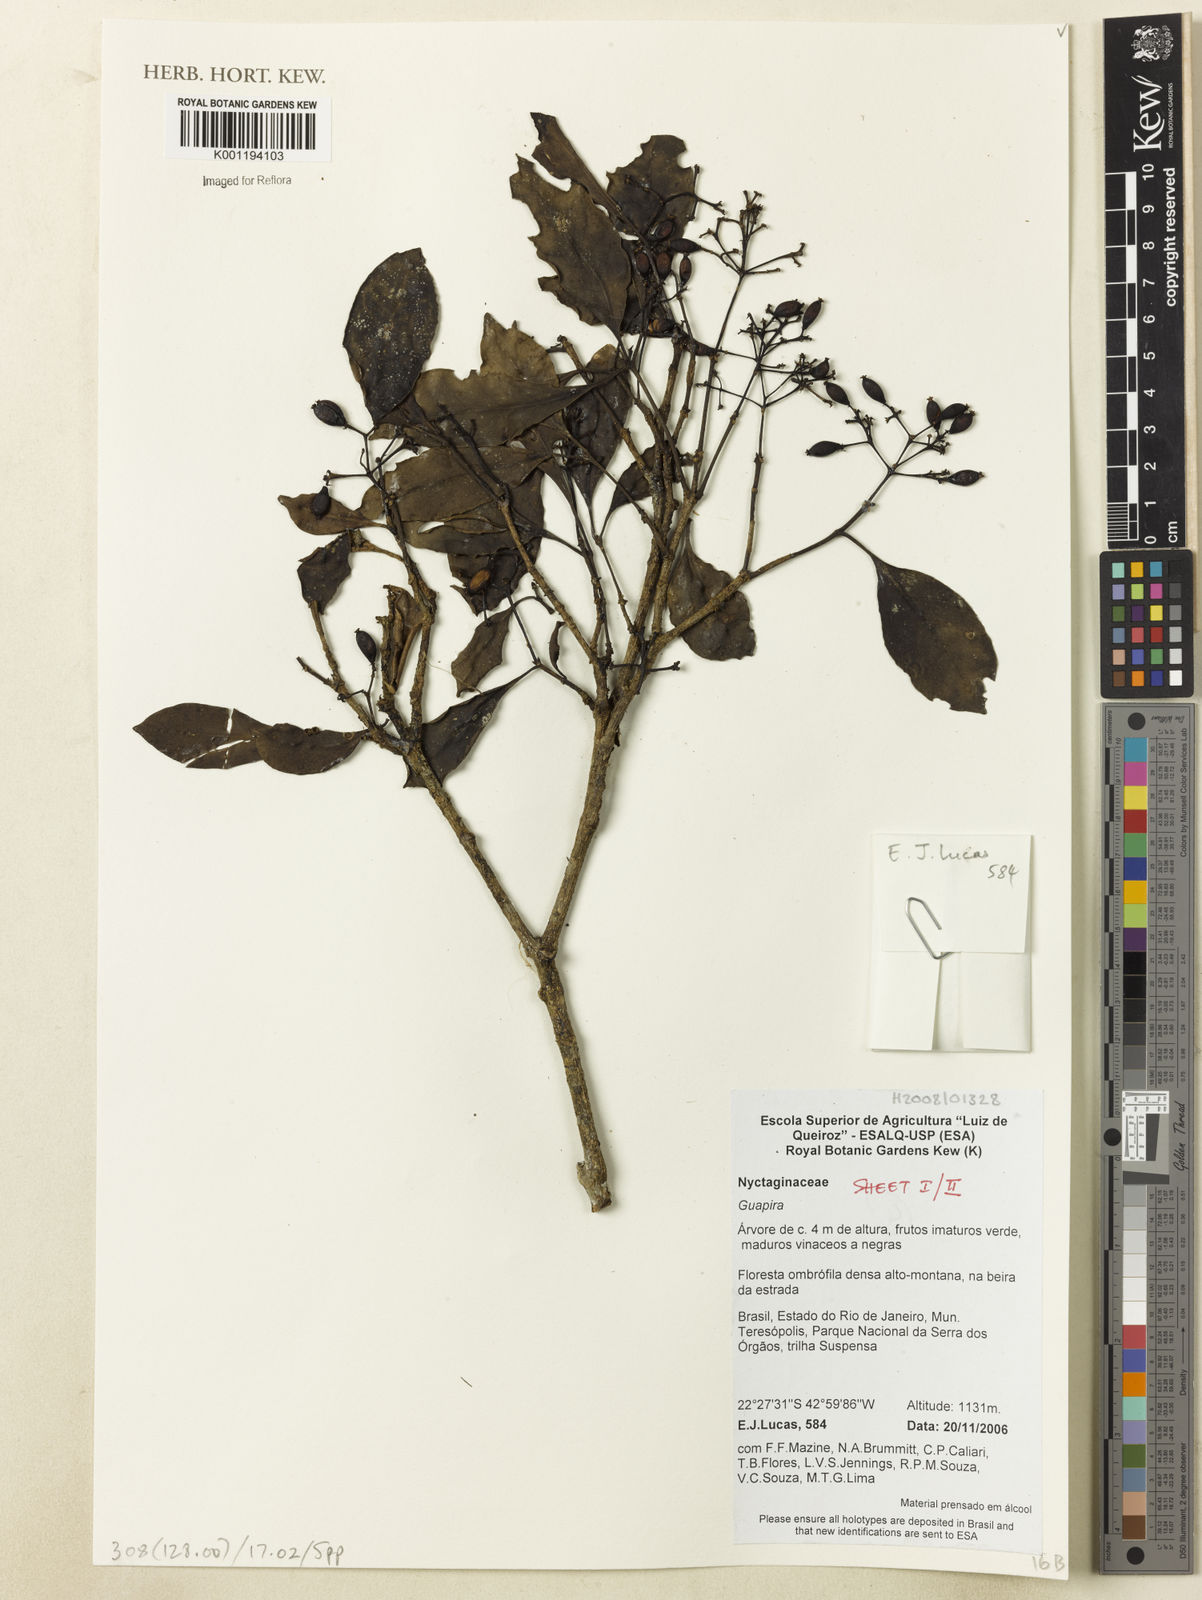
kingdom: Plantae
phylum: Tracheophyta
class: Magnoliopsida
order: Caryophyllales
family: Nyctaginaceae
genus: Guapira
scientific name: Guapira
